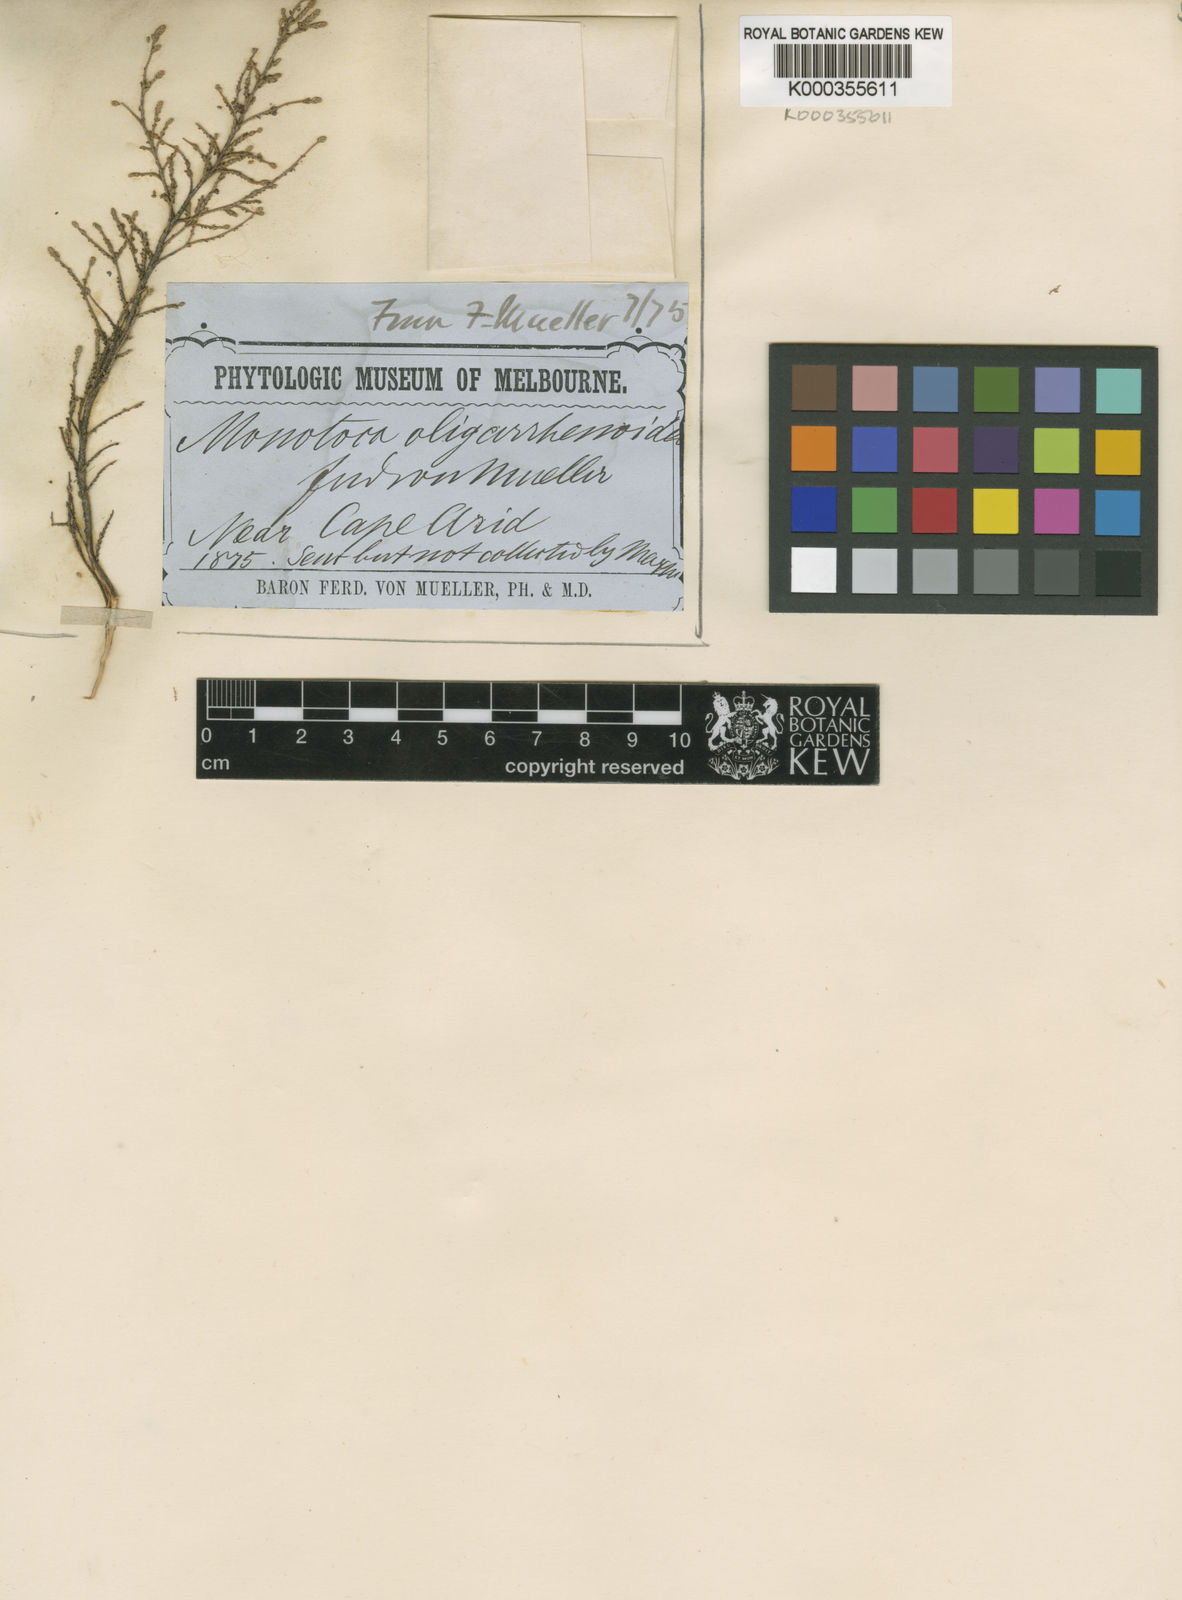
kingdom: Plantae
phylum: Tracheophyta
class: Magnoliopsida
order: Ericales
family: Ericaceae
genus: Oligarrhena
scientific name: Oligarrhena micrantha
